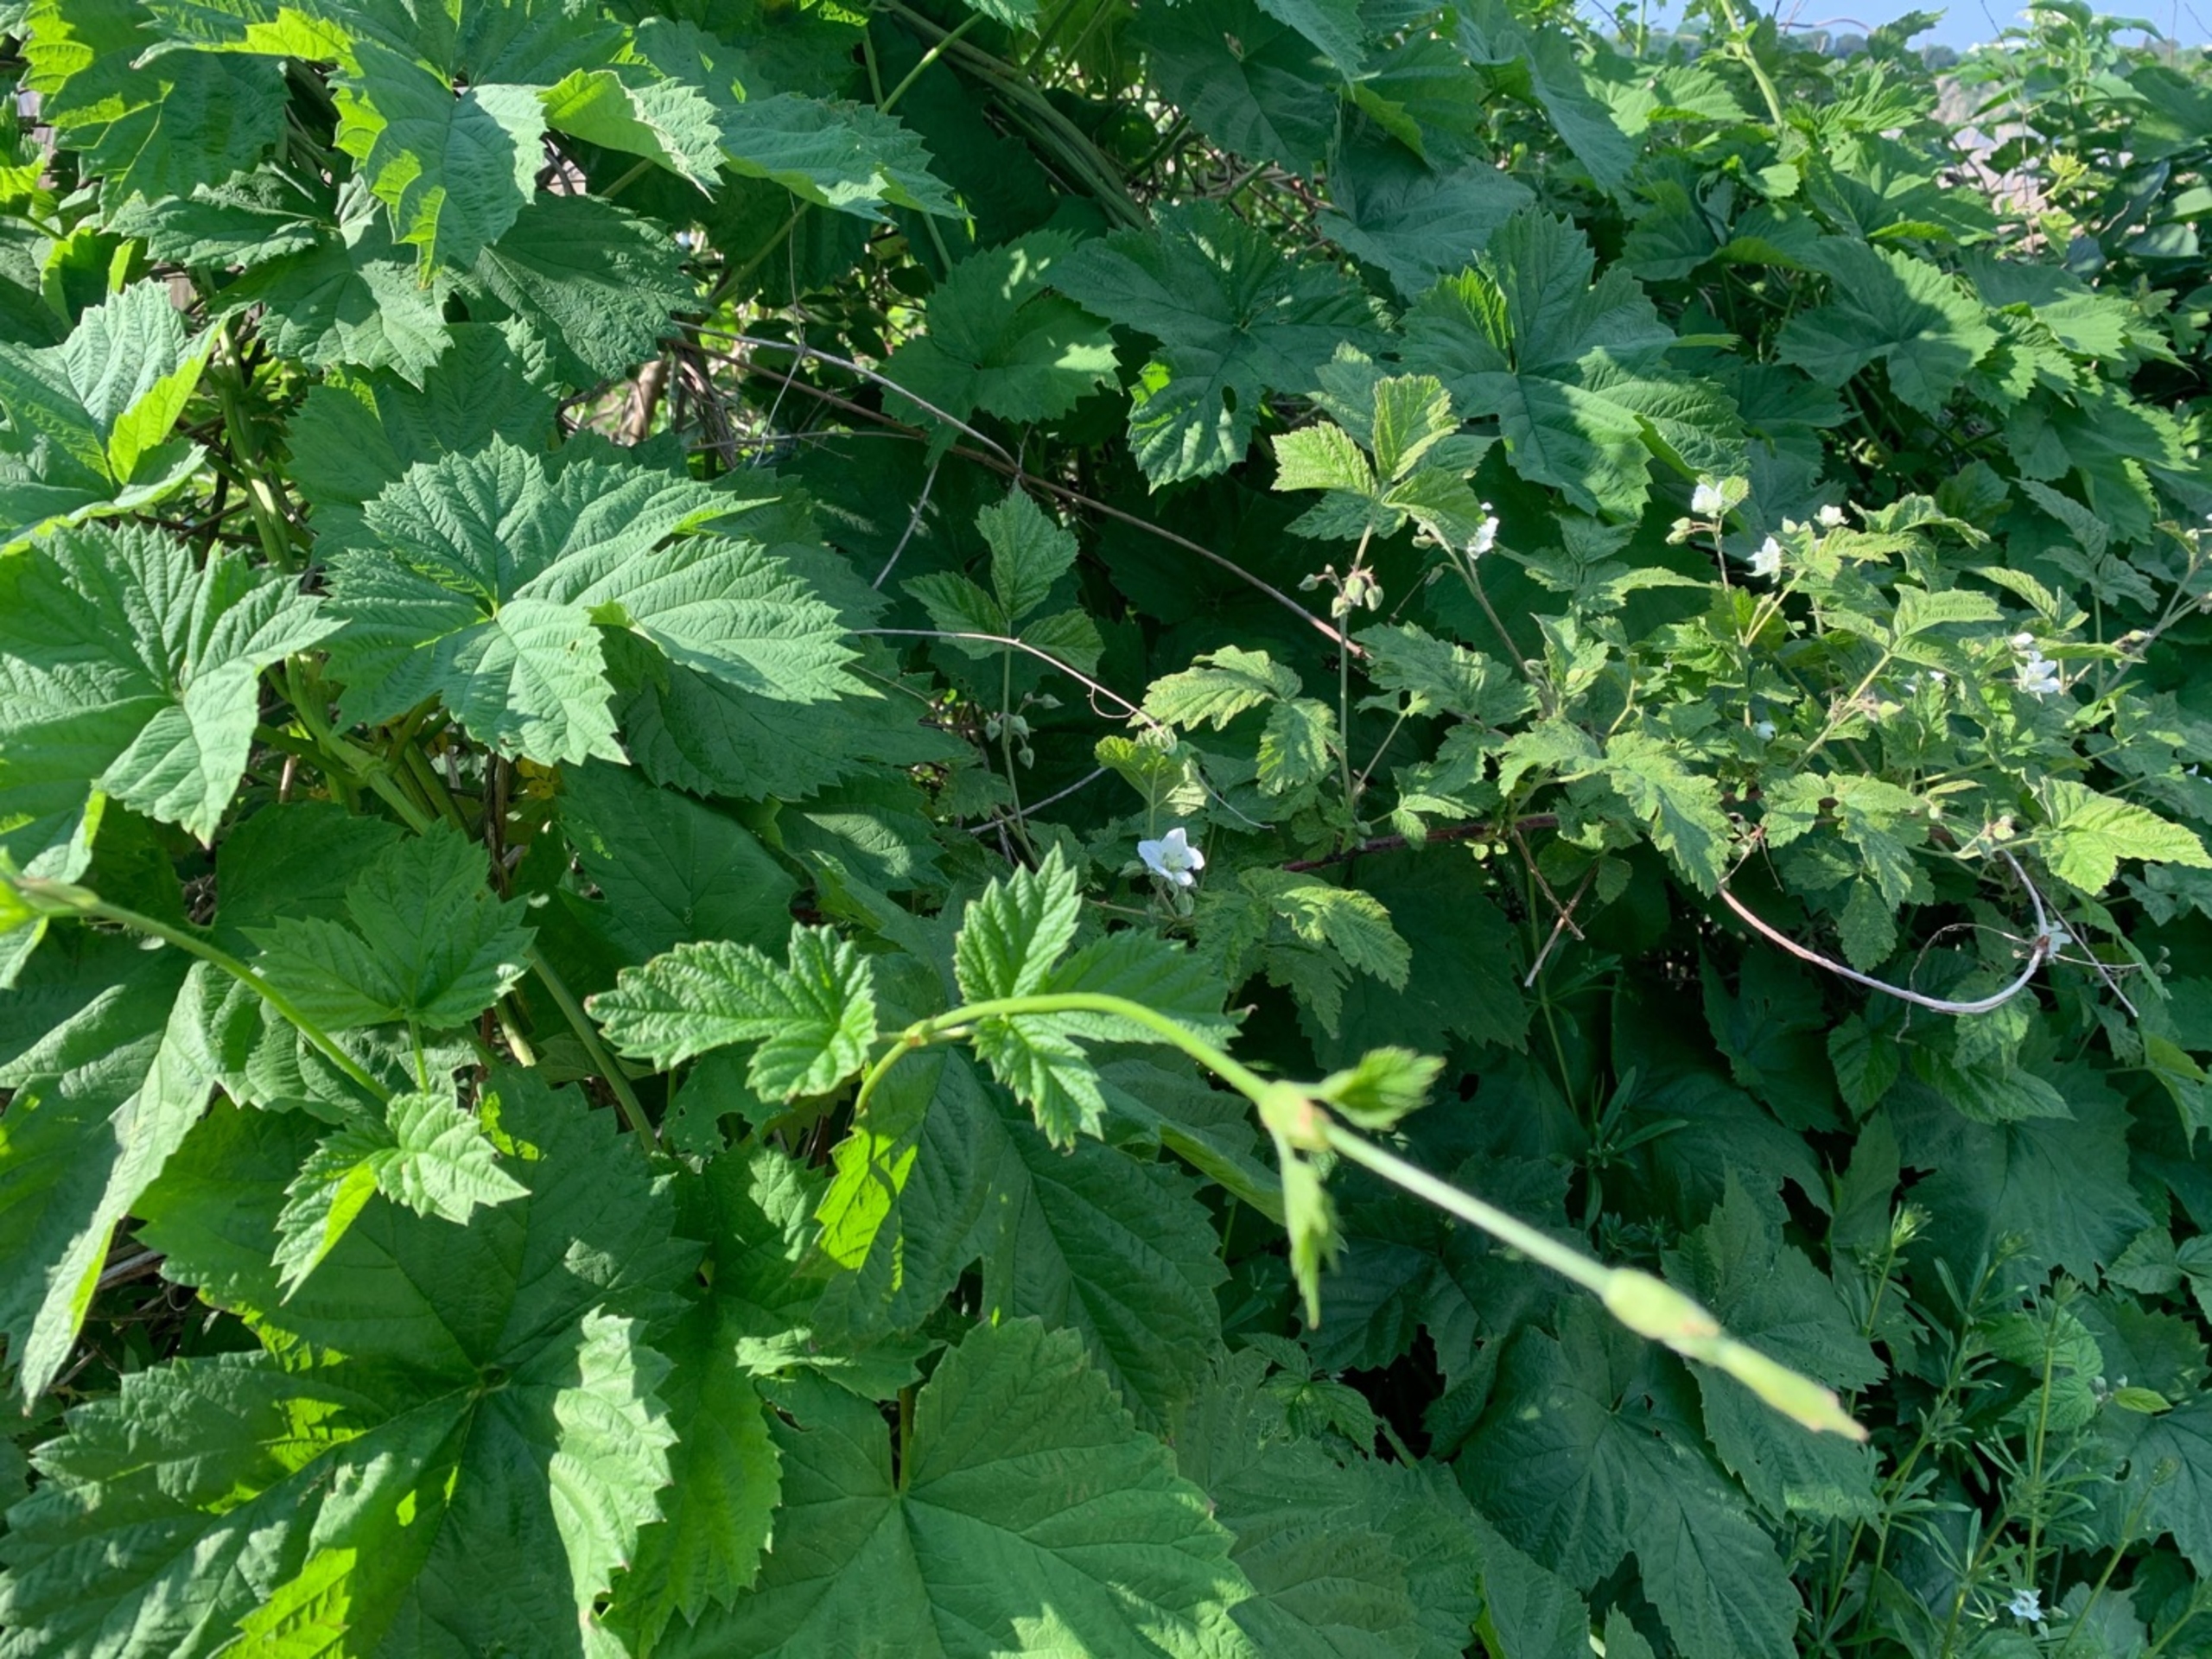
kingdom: Plantae
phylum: Tracheophyta
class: Magnoliopsida
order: Rosales
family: Cannabaceae
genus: Humulus
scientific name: Humulus lupulus
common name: Humle
